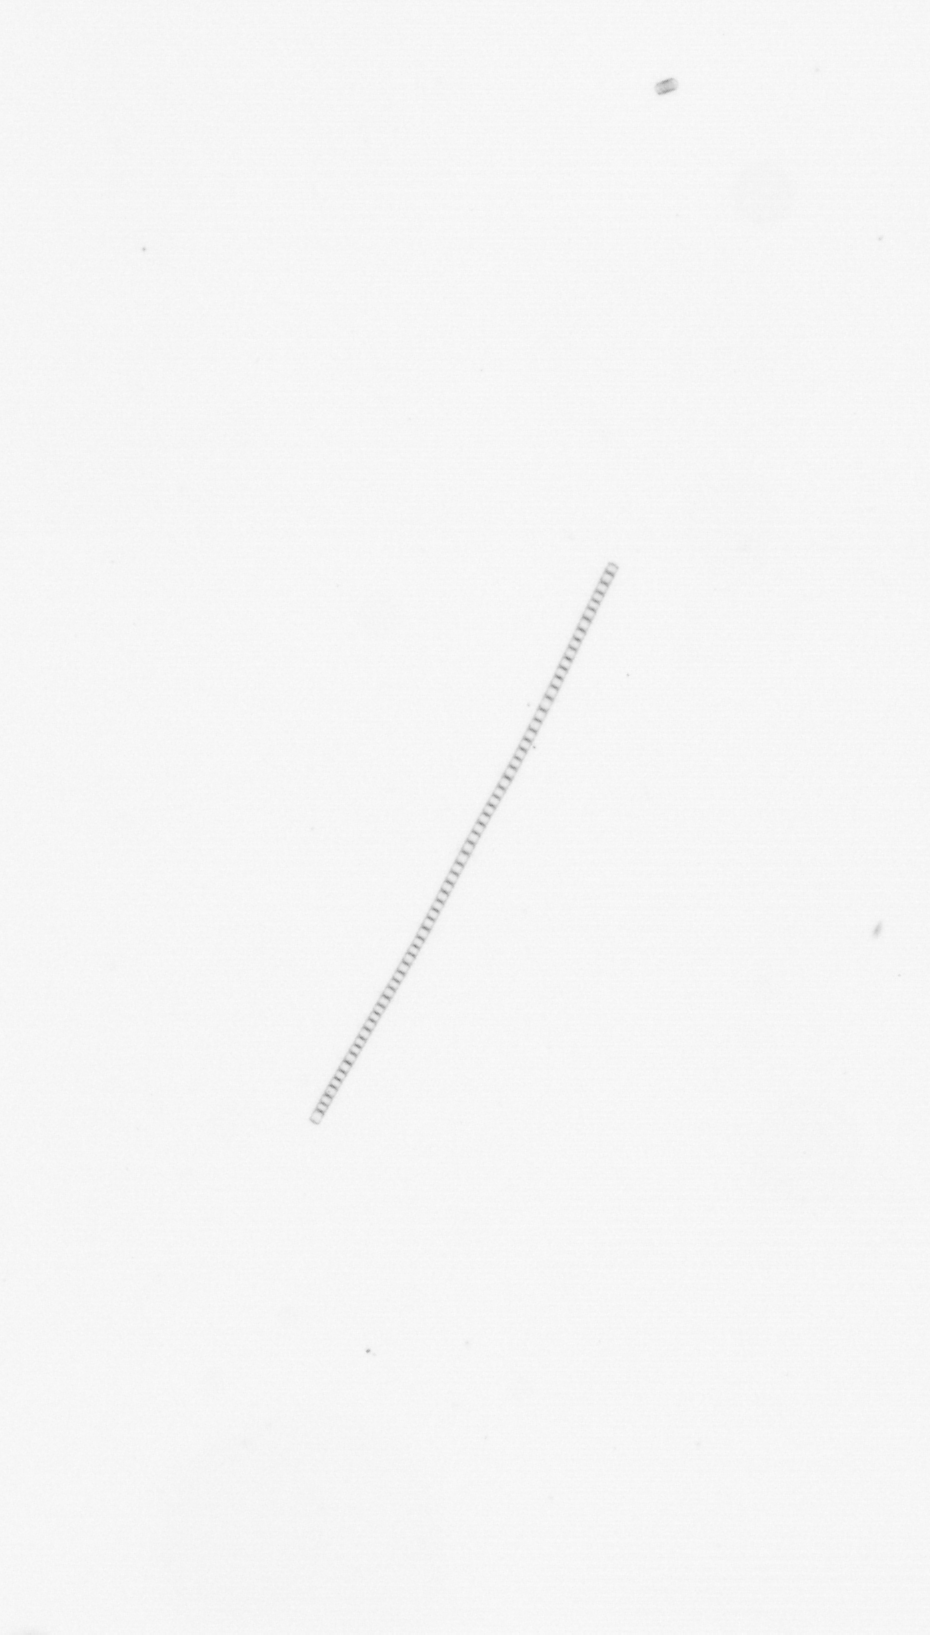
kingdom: Chromista
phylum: Ochrophyta
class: Bacillariophyceae
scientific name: Bacillariophyceae
